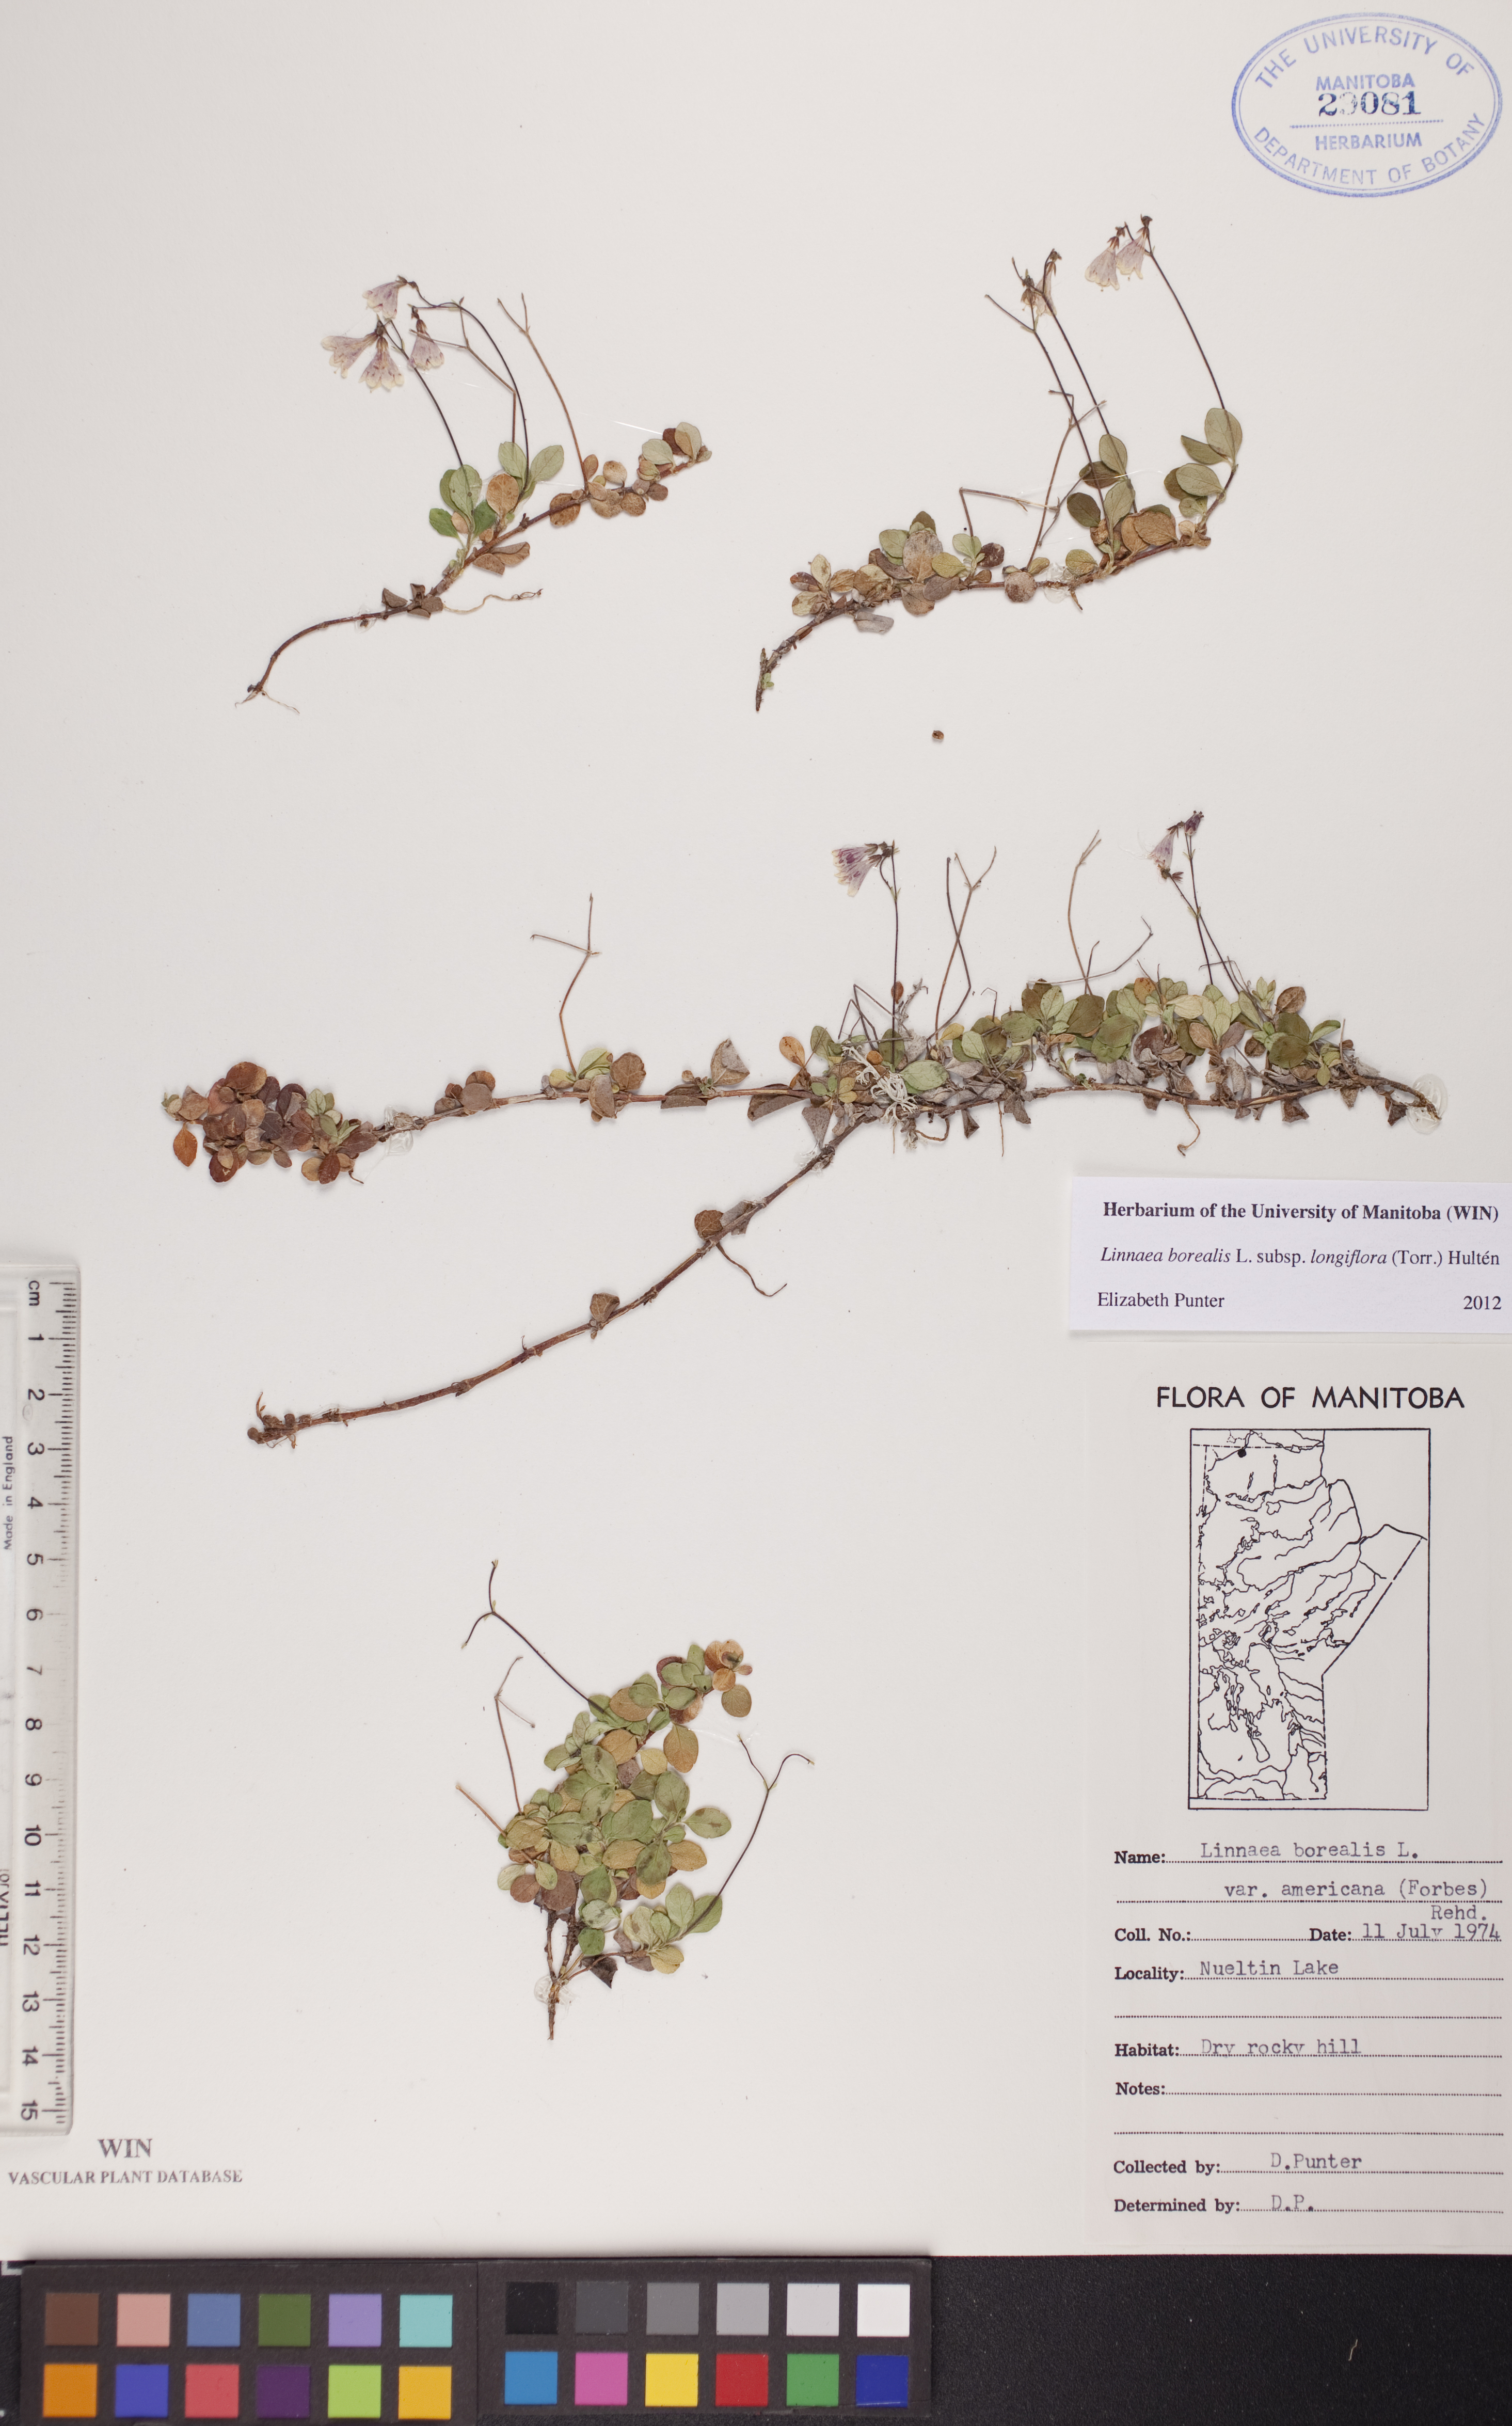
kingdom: Plantae
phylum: Tracheophyta
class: Magnoliopsida
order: Dipsacales
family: Caprifoliaceae
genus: Linnaea
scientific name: Linnaea borealis
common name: Twinflower
